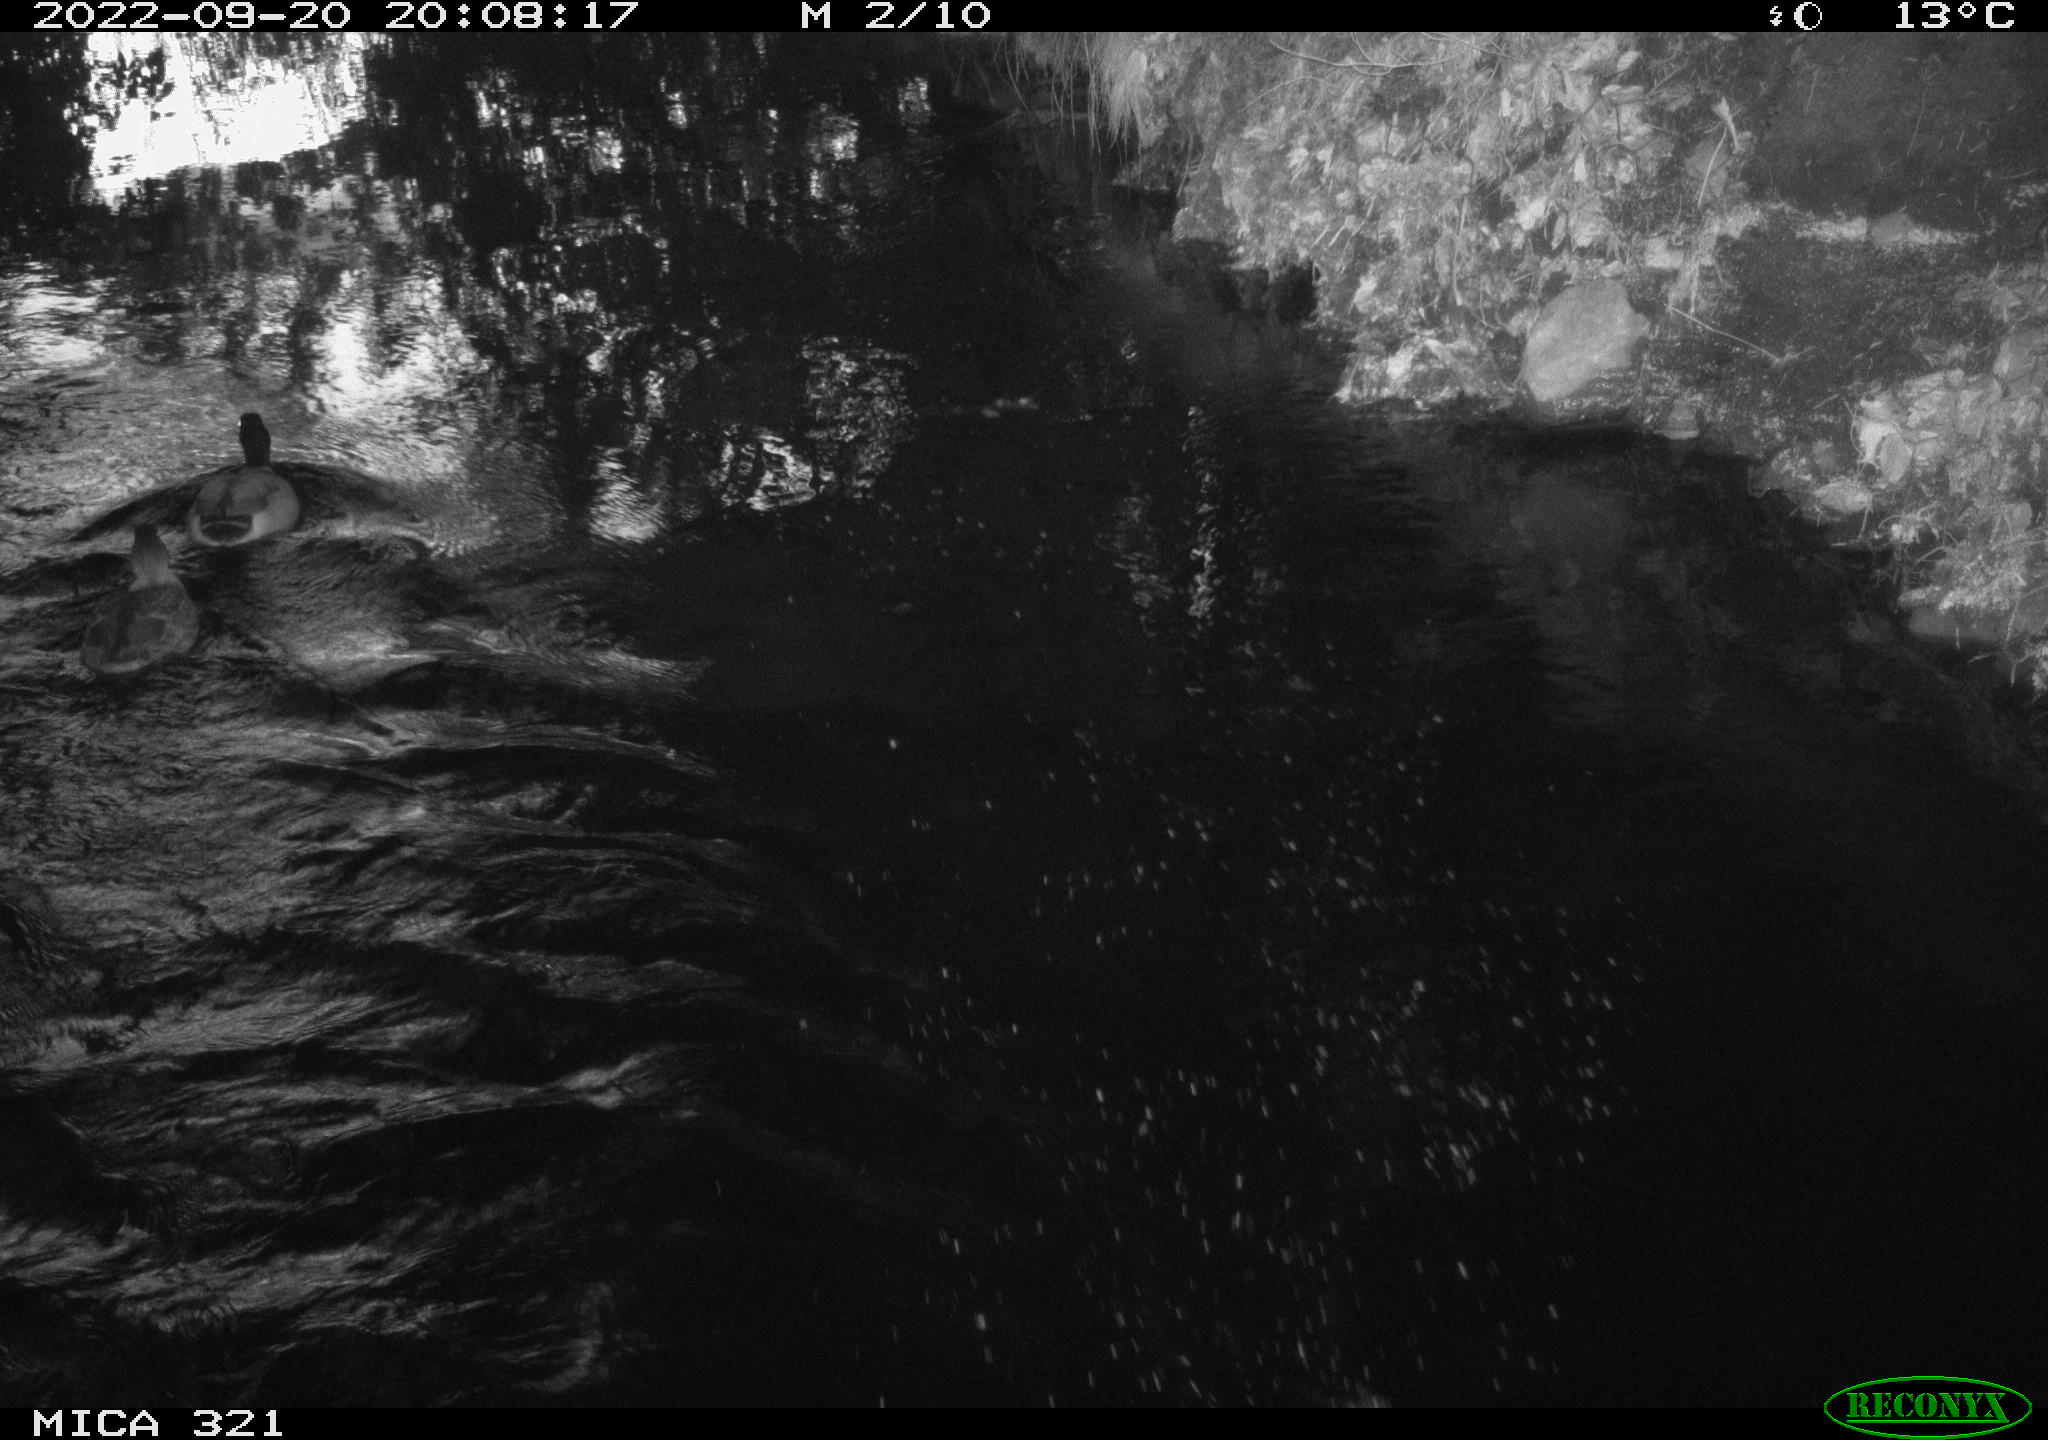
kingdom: Animalia
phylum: Chordata
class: Aves
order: Anseriformes
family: Anatidae
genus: Anas
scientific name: Anas
